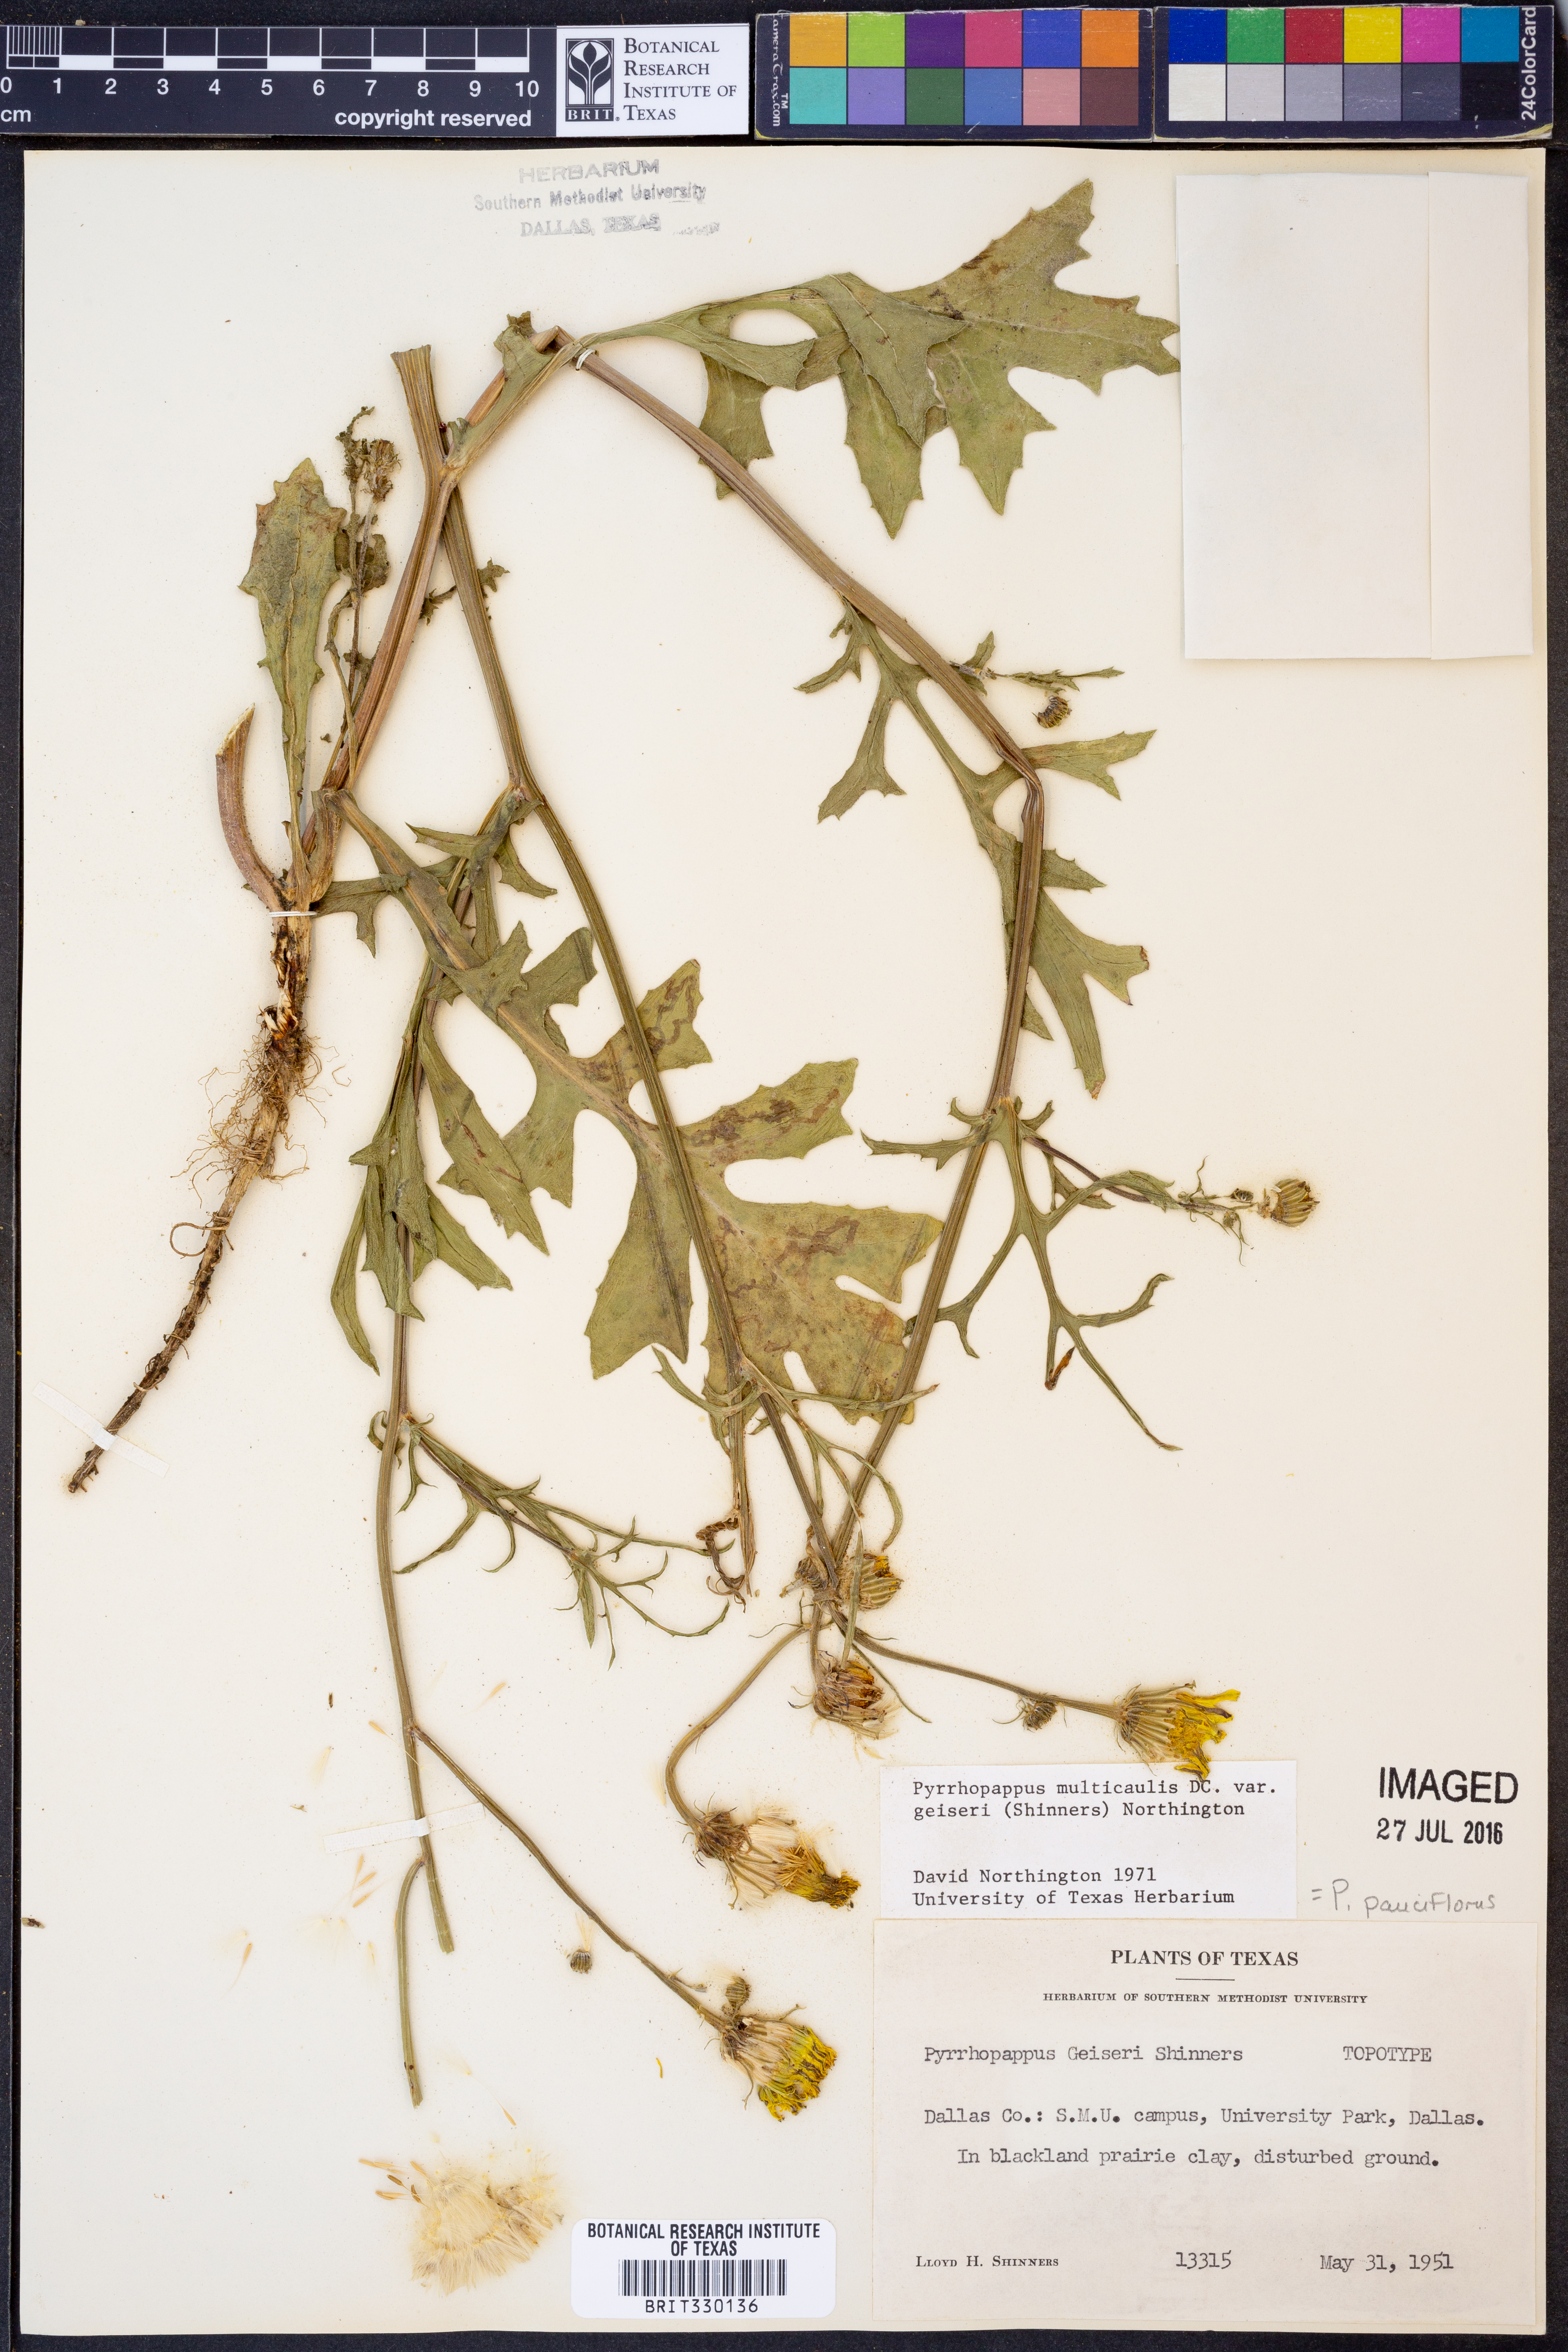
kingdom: Plantae
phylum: Tracheophyta
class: Magnoliopsida
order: Asterales
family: Asteraceae
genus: Pyrrhopappus
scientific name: Pyrrhopappus pauciflorus
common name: Texas false dandelion
